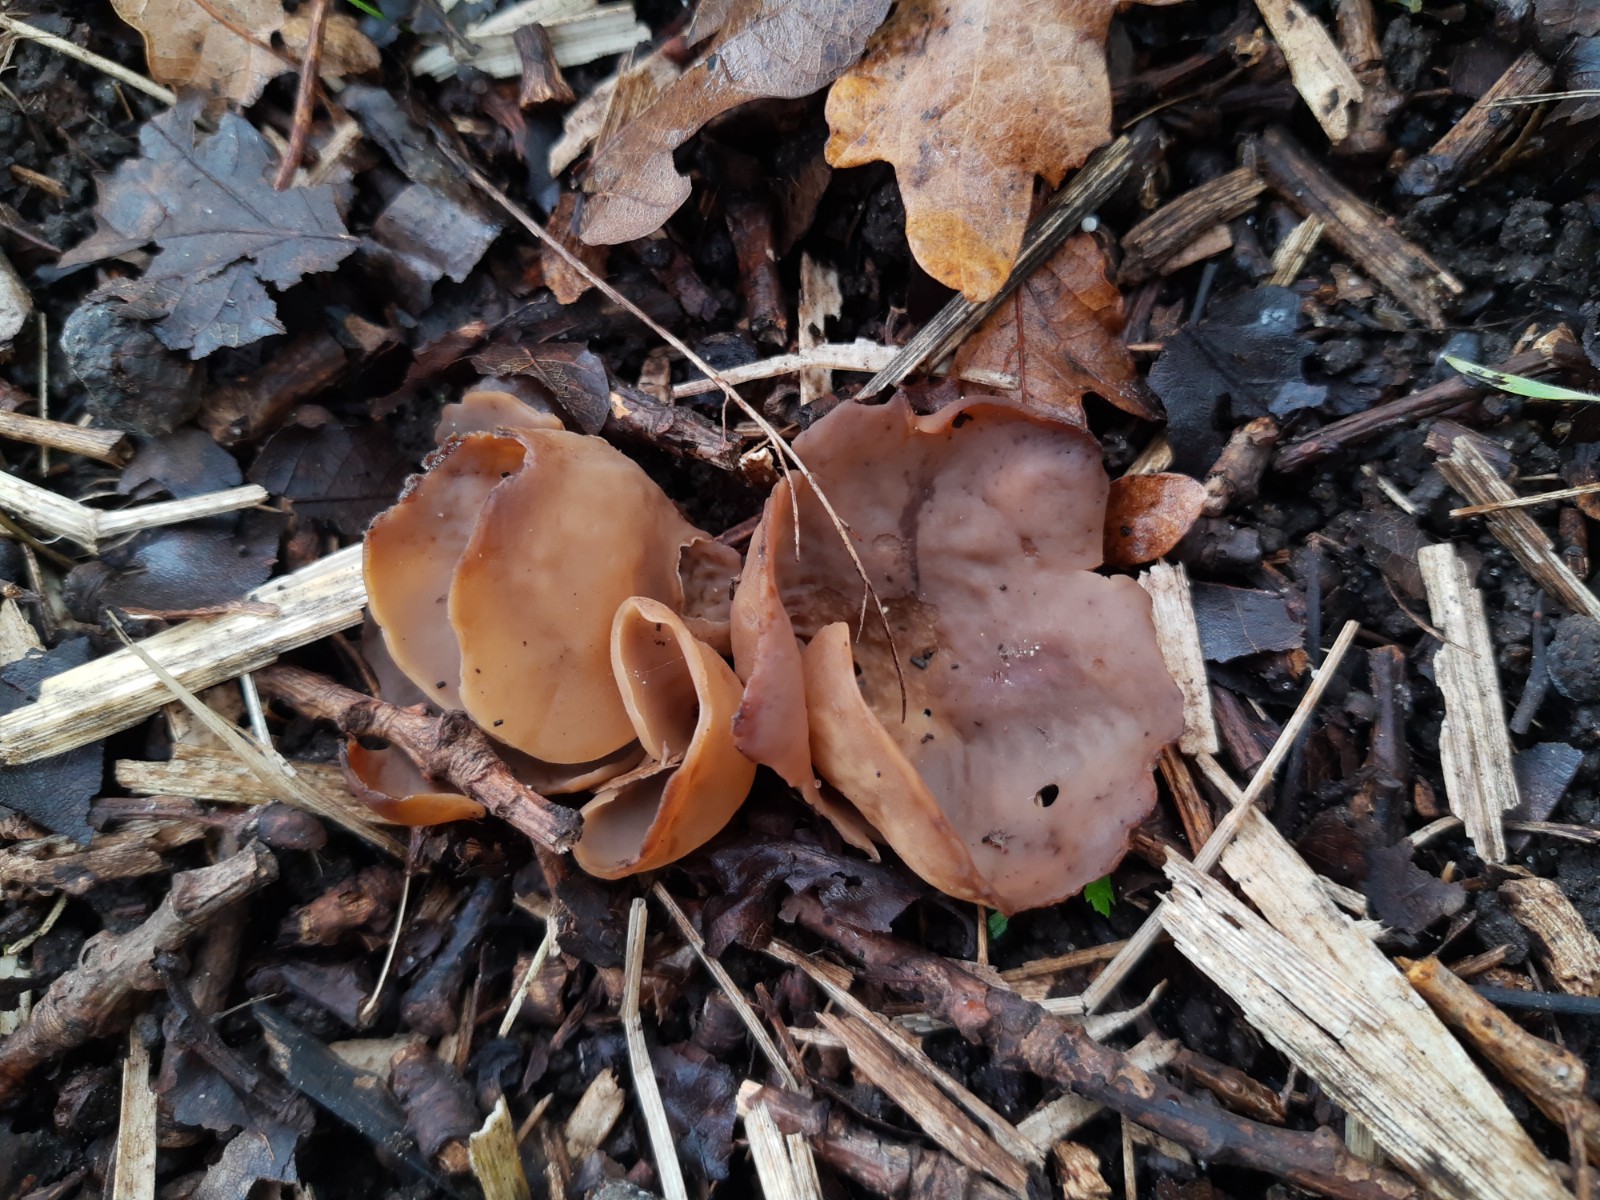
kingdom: Fungi
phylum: Ascomycota
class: Pezizomycetes
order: Pezizales
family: Otideaceae
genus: Otidea
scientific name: Otidea
